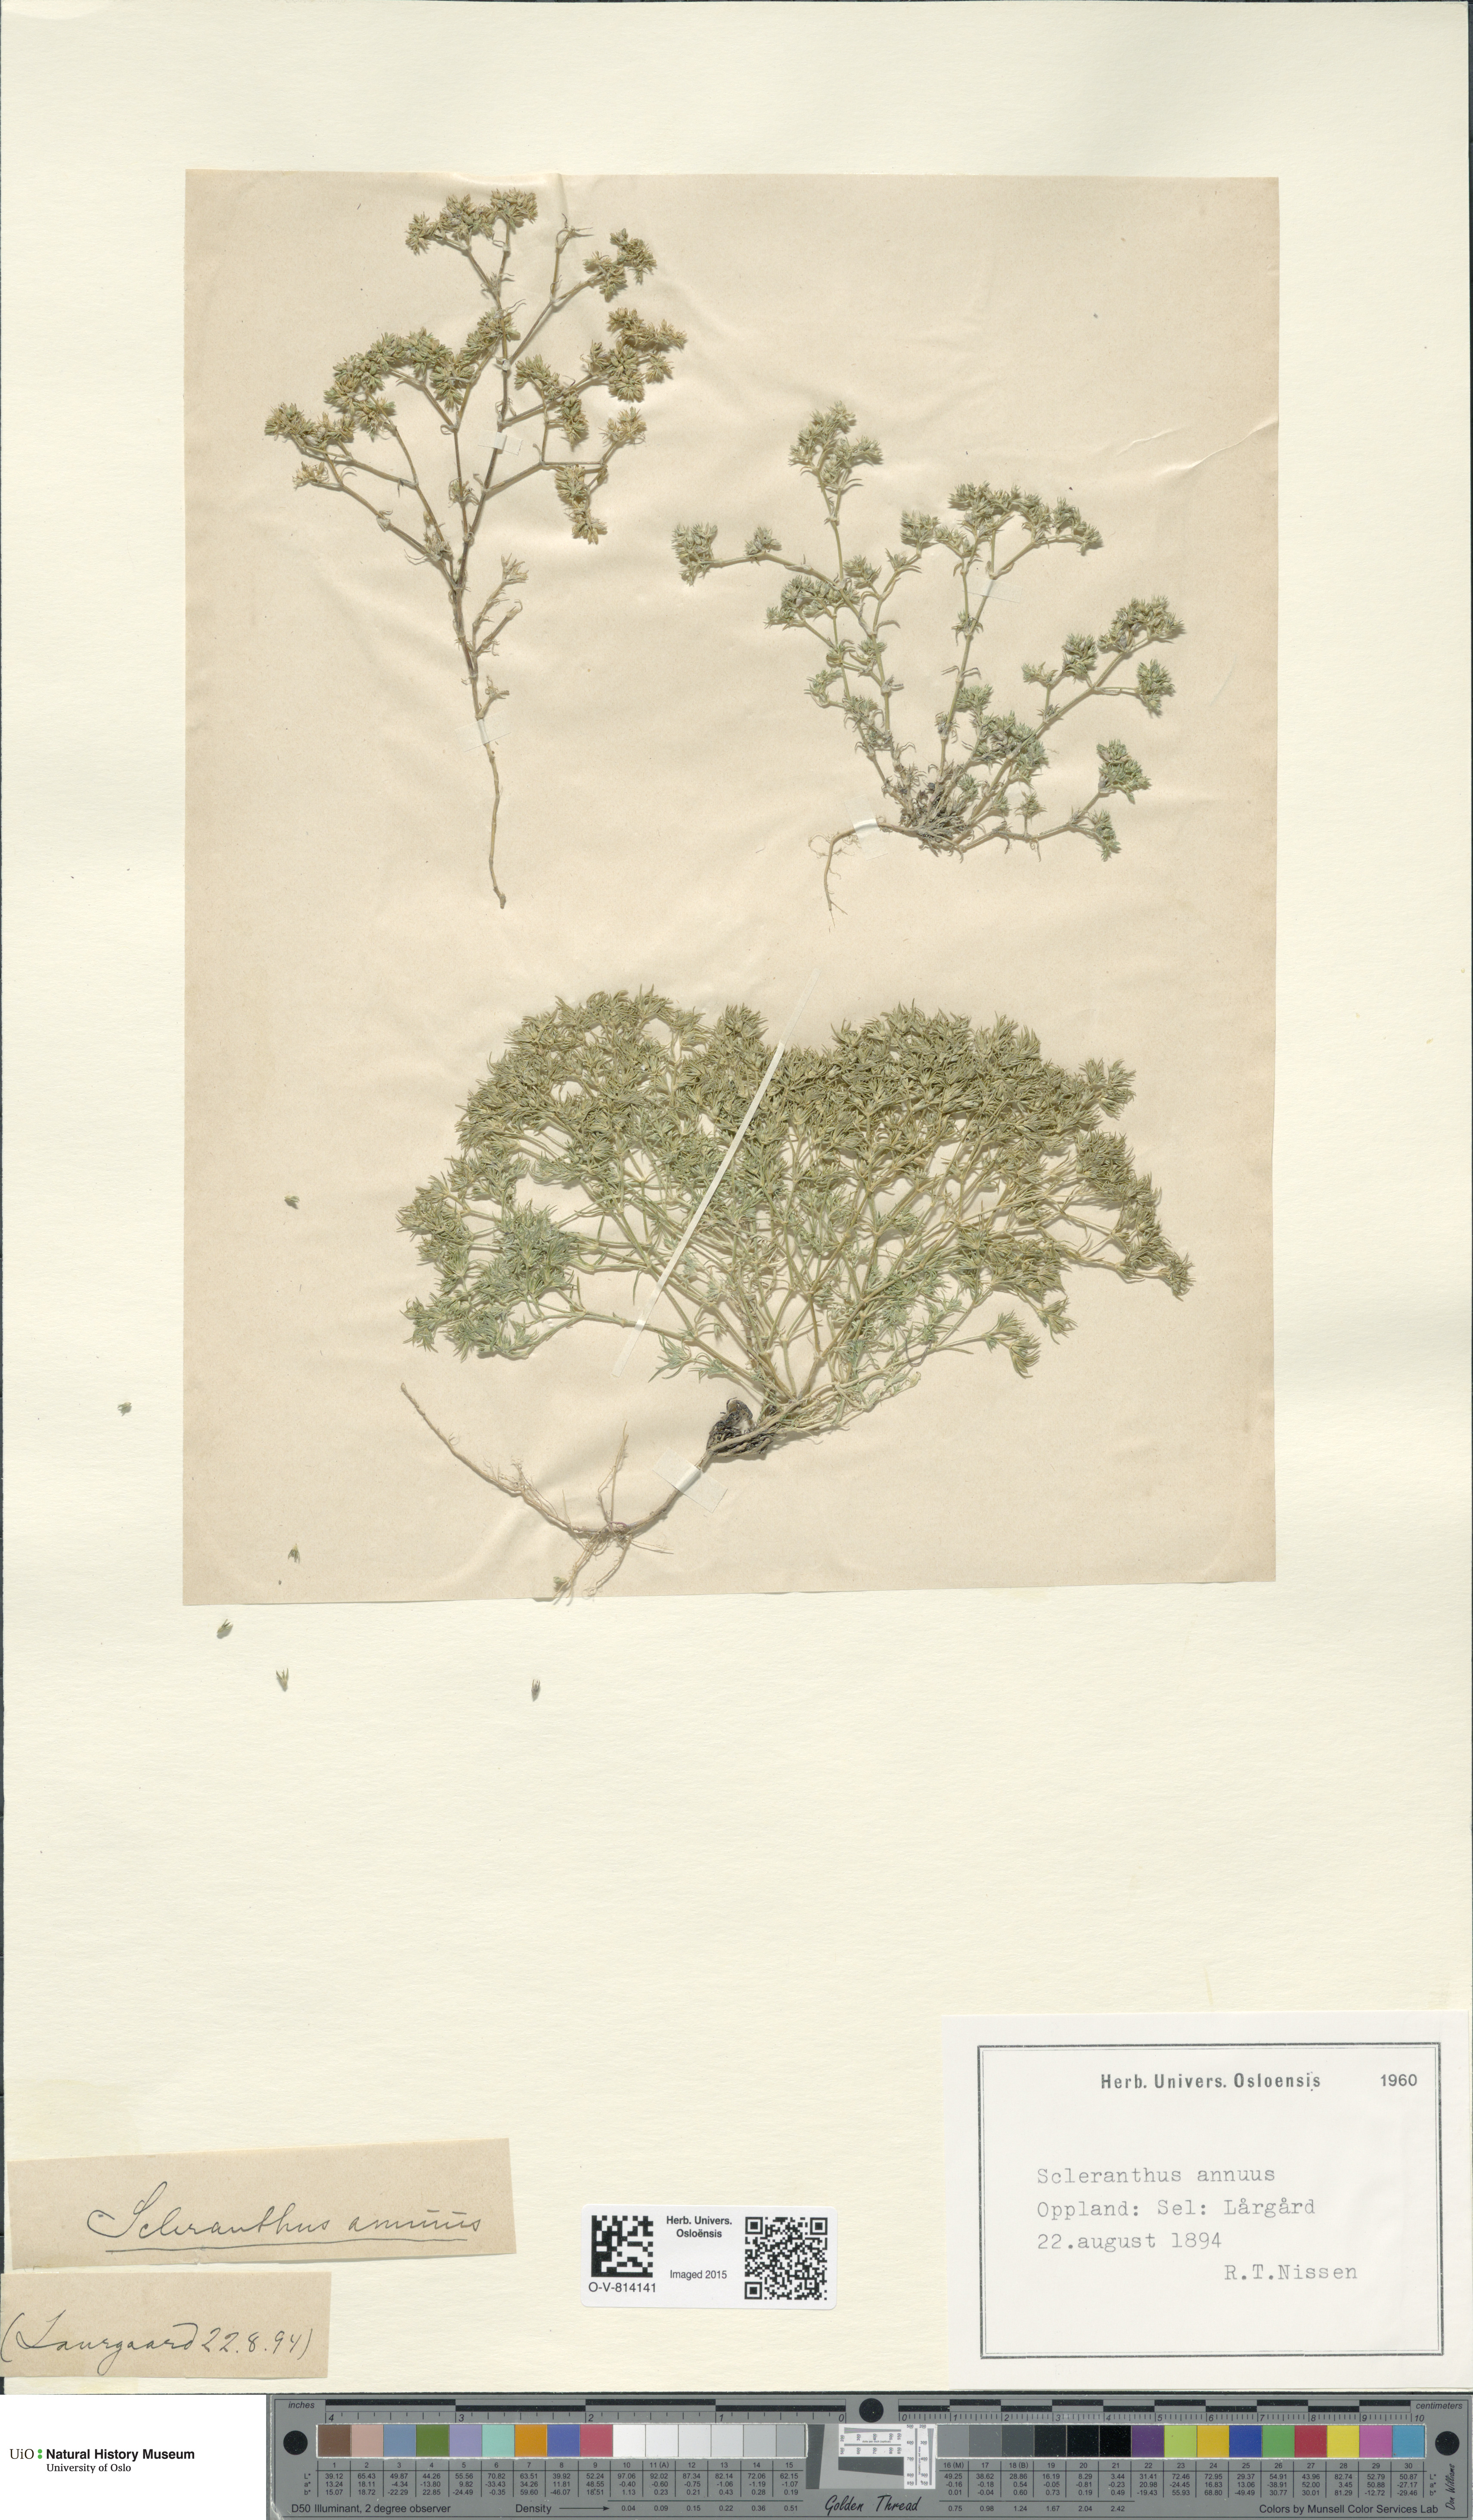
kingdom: Plantae
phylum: Tracheophyta
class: Magnoliopsida
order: Caryophyllales
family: Caryophyllaceae
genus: Scleranthus
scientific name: Scleranthus annuus
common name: Annual knawel
